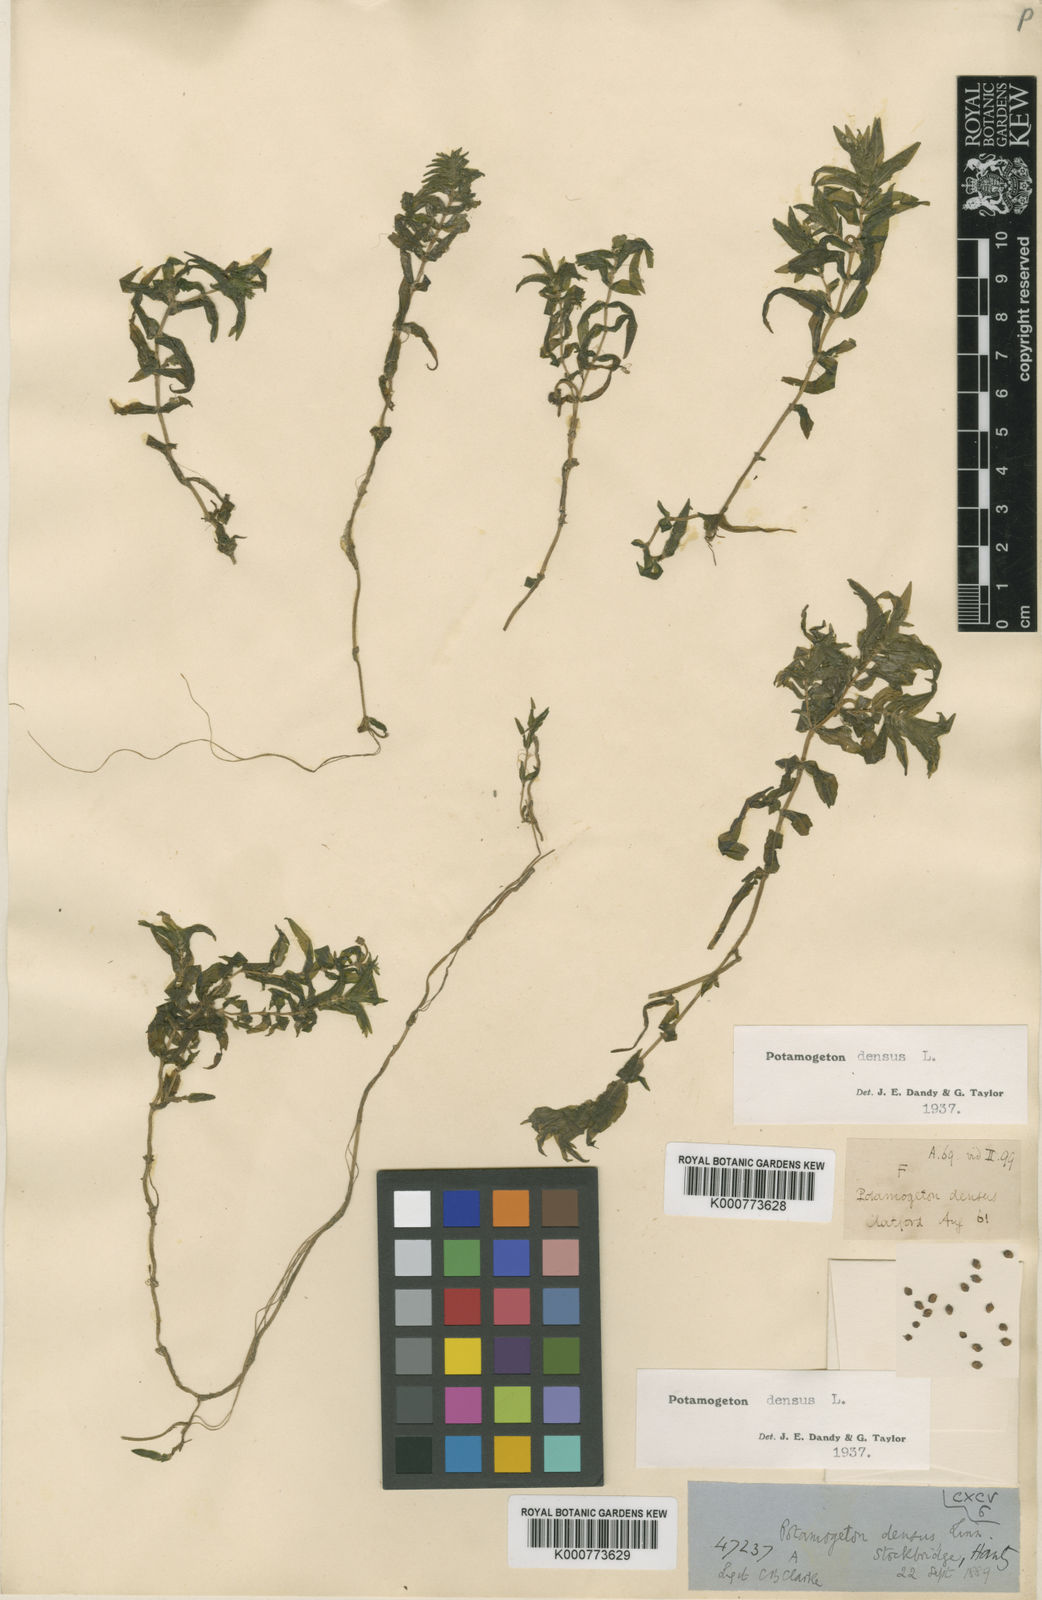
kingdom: Plantae
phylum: Tracheophyta
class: Liliopsida
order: Alismatales
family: Potamogetonaceae
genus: Groenlandia
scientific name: Groenlandia densa
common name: Opposite-leaved pondweed
